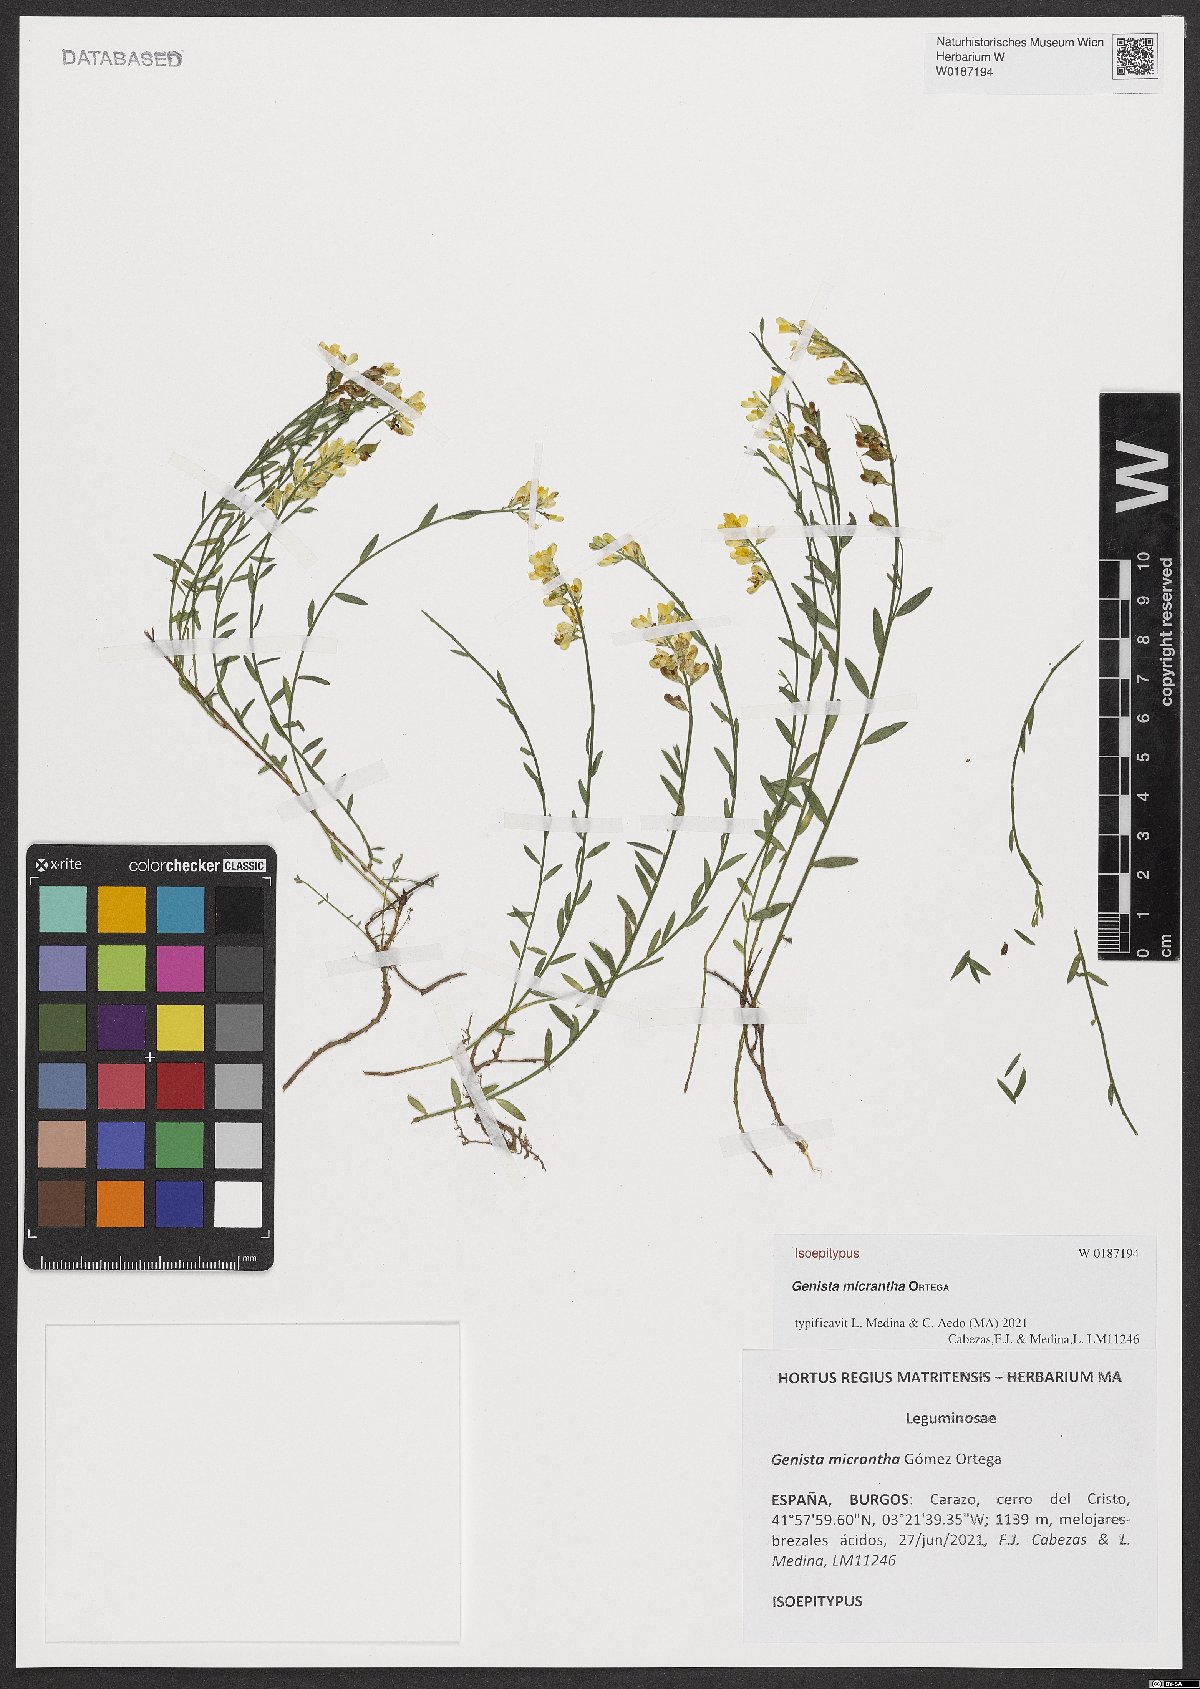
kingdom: Plantae
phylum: Tracheophyta
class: Magnoliopsida
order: Fabales
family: Fabaceae
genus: Genista
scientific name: Genista micrantha
